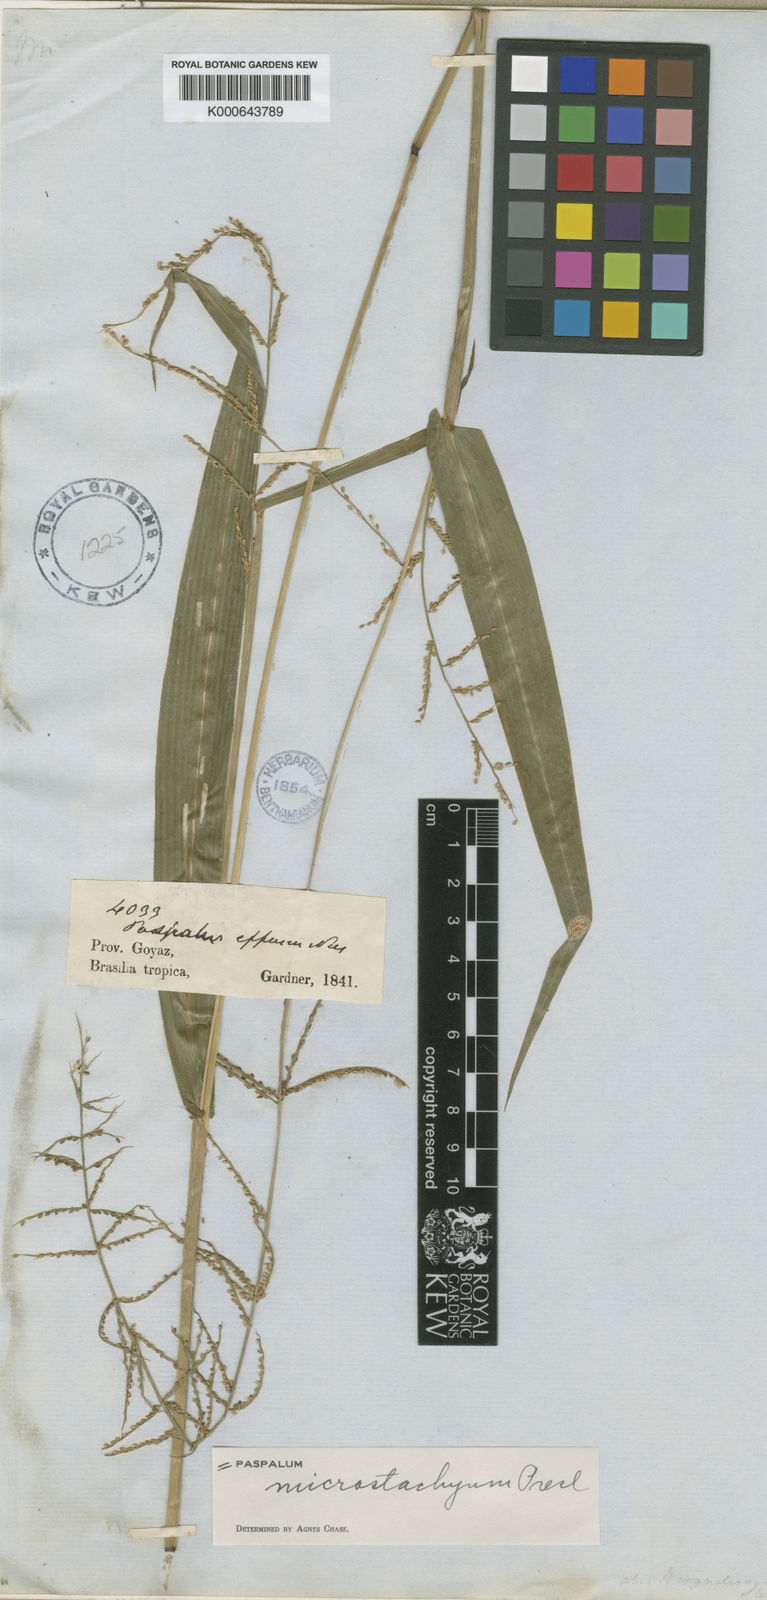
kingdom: Plantae
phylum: Tracheophyta
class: Liliopsida
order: Poales
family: Poaceae
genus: Paspalum
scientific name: Paspalum microstachyum
